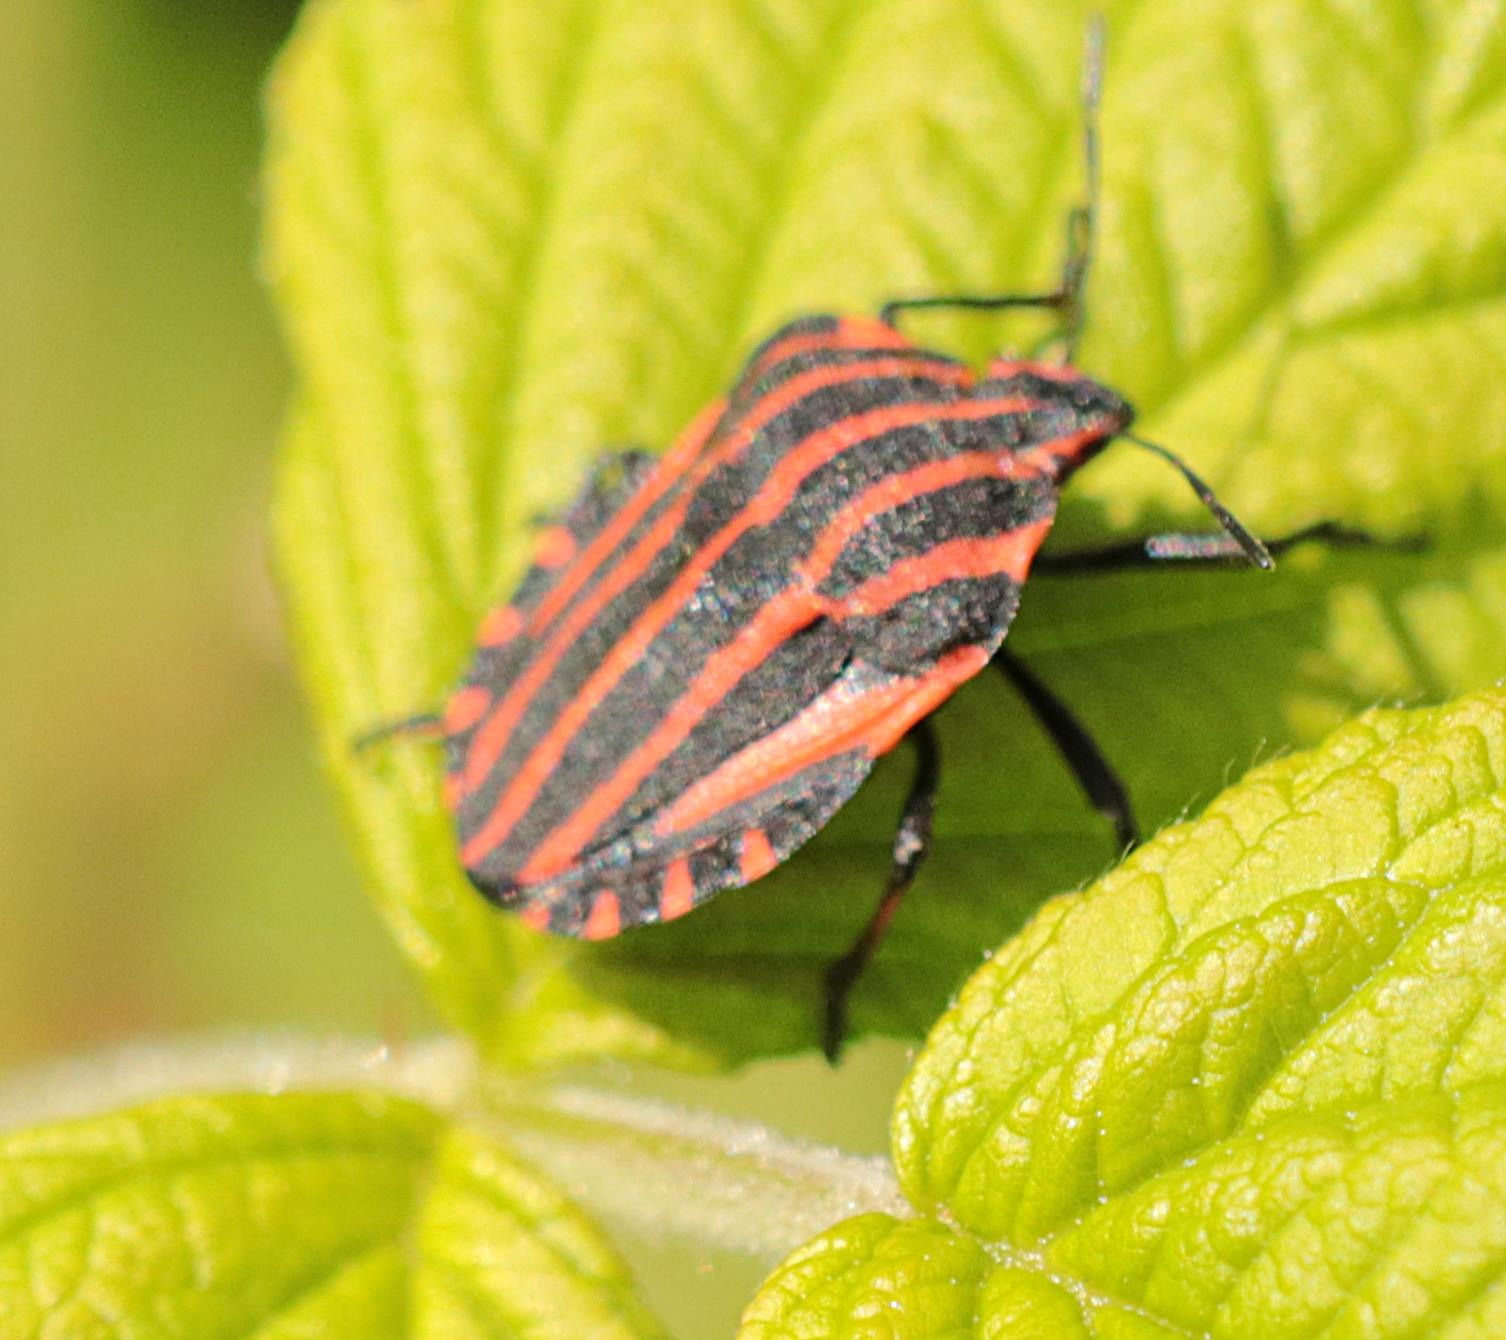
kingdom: Animalia
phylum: Arthropoda
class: Insecta
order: Hemiptera
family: Pentatomidae
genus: Graphosoma
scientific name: Graphosoma italicum
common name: Stribetæge
